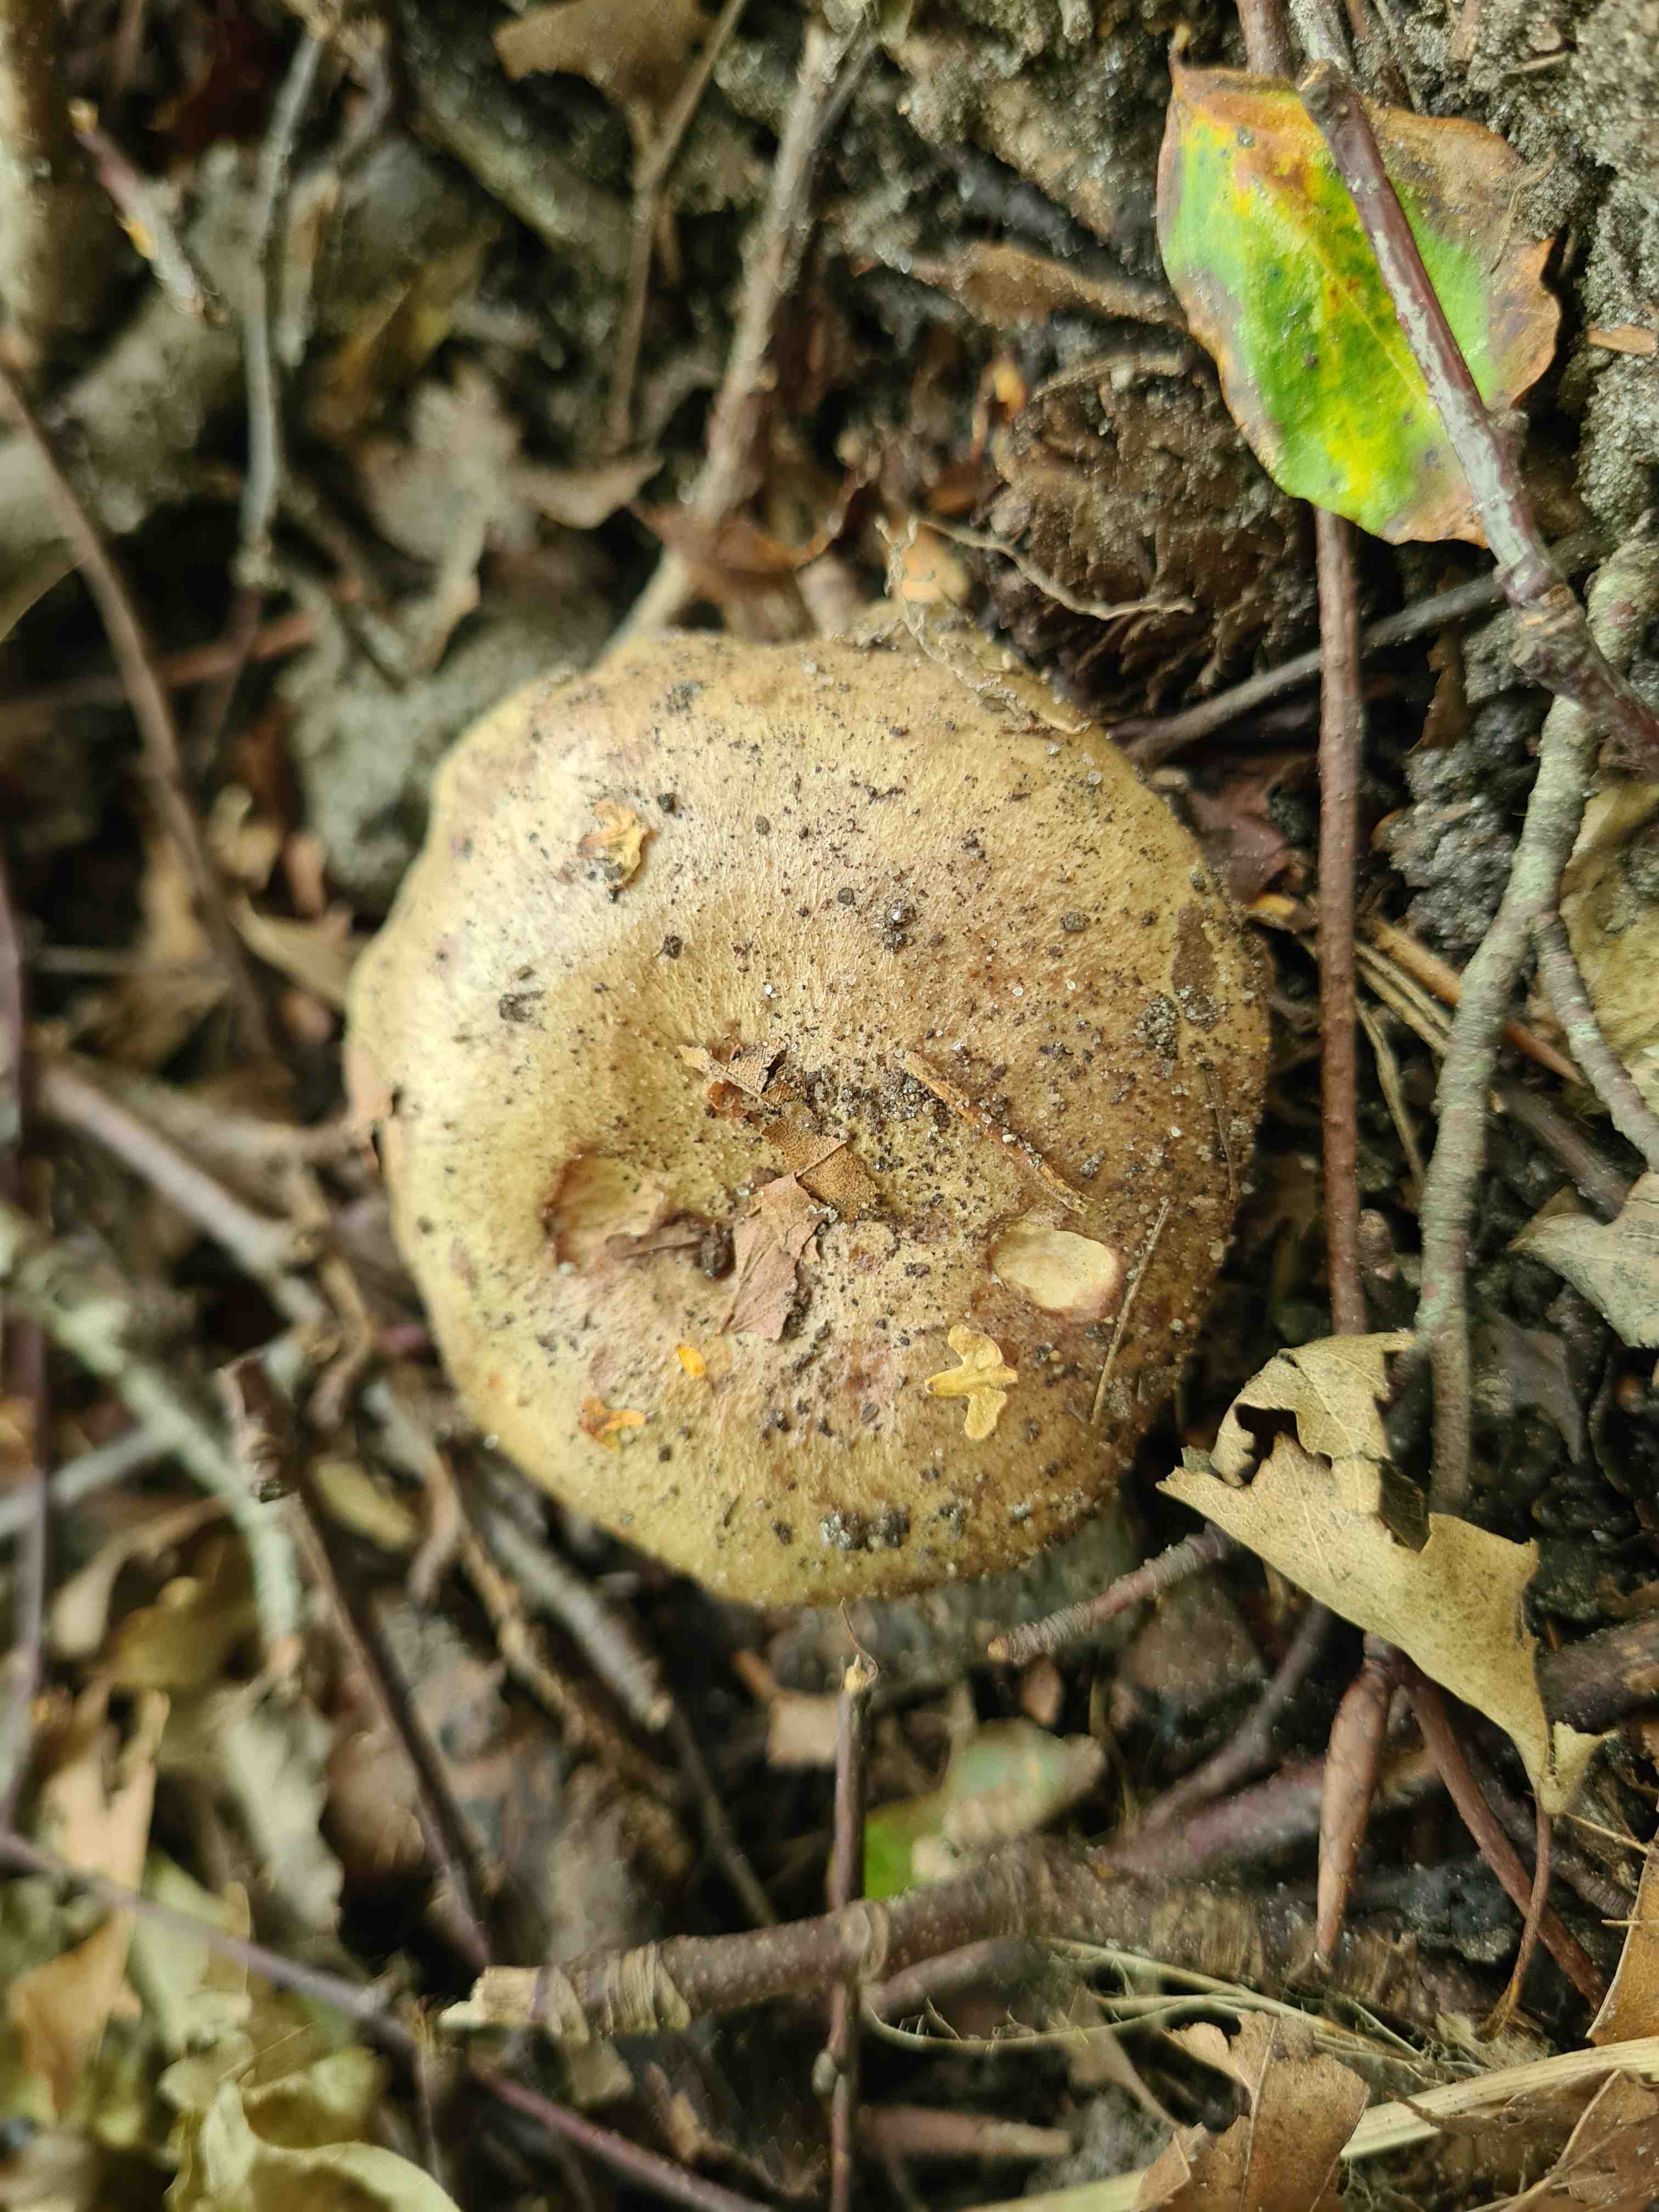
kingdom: Fungi
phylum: Basidiomycota
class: Agaricomycetes
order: Russulales
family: Russulaceae
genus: Lactarius
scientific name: Lactarius blennius
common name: dråbeplettet mælkehat
